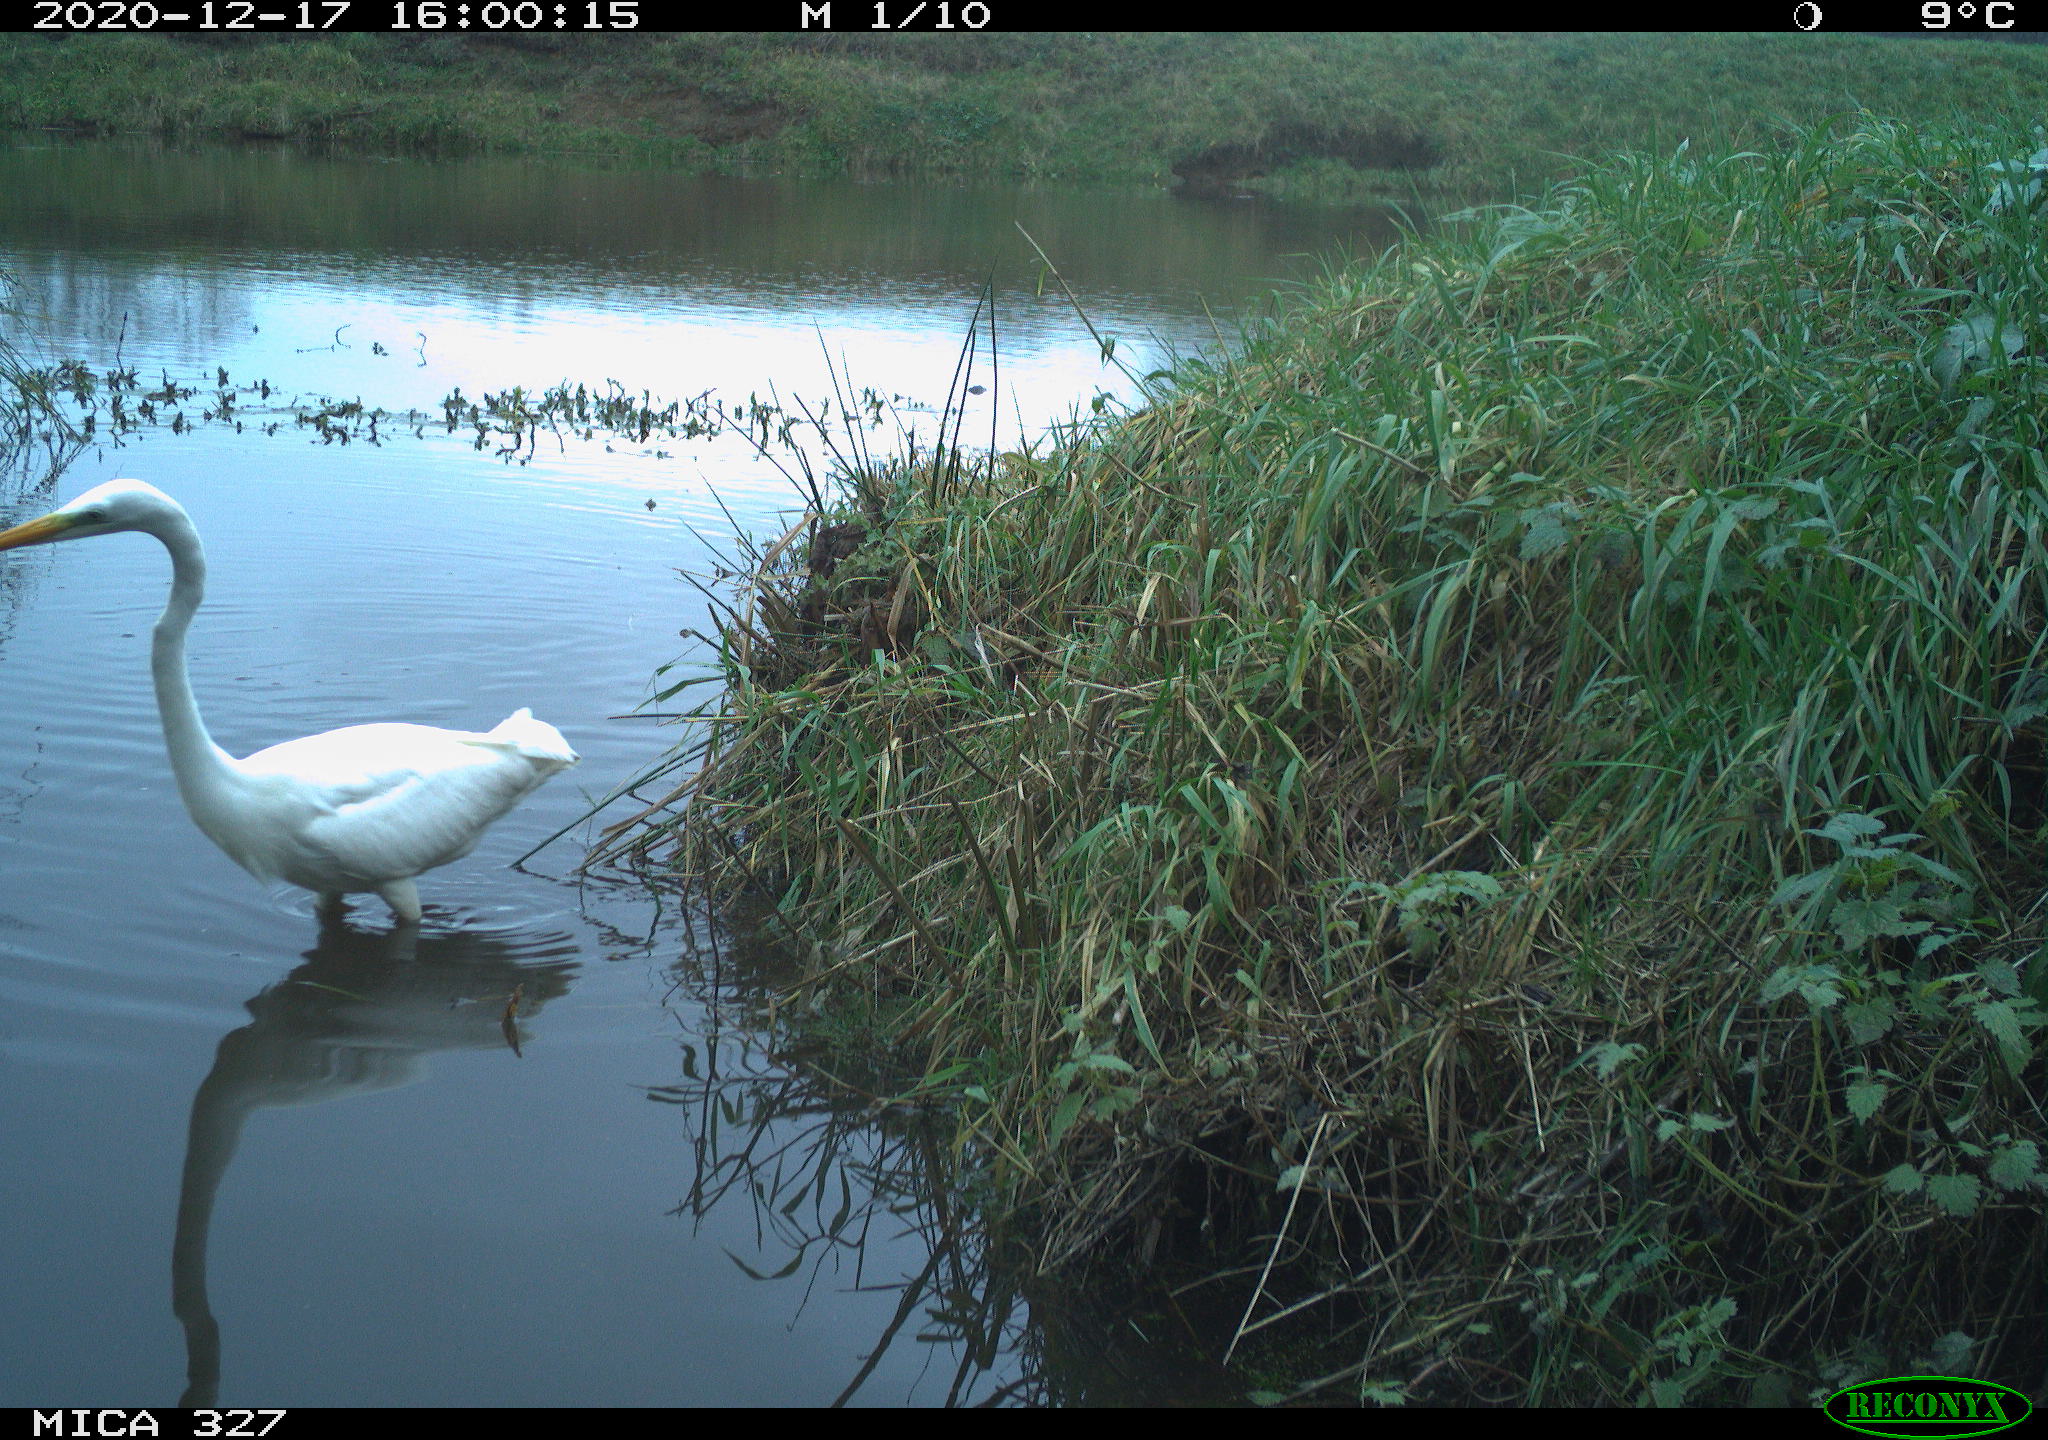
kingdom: Animalia
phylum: Chordata
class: Aves
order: Pelecaniformes
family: Ardeidae
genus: Ardea
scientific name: Ardea alba
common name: Great egret
